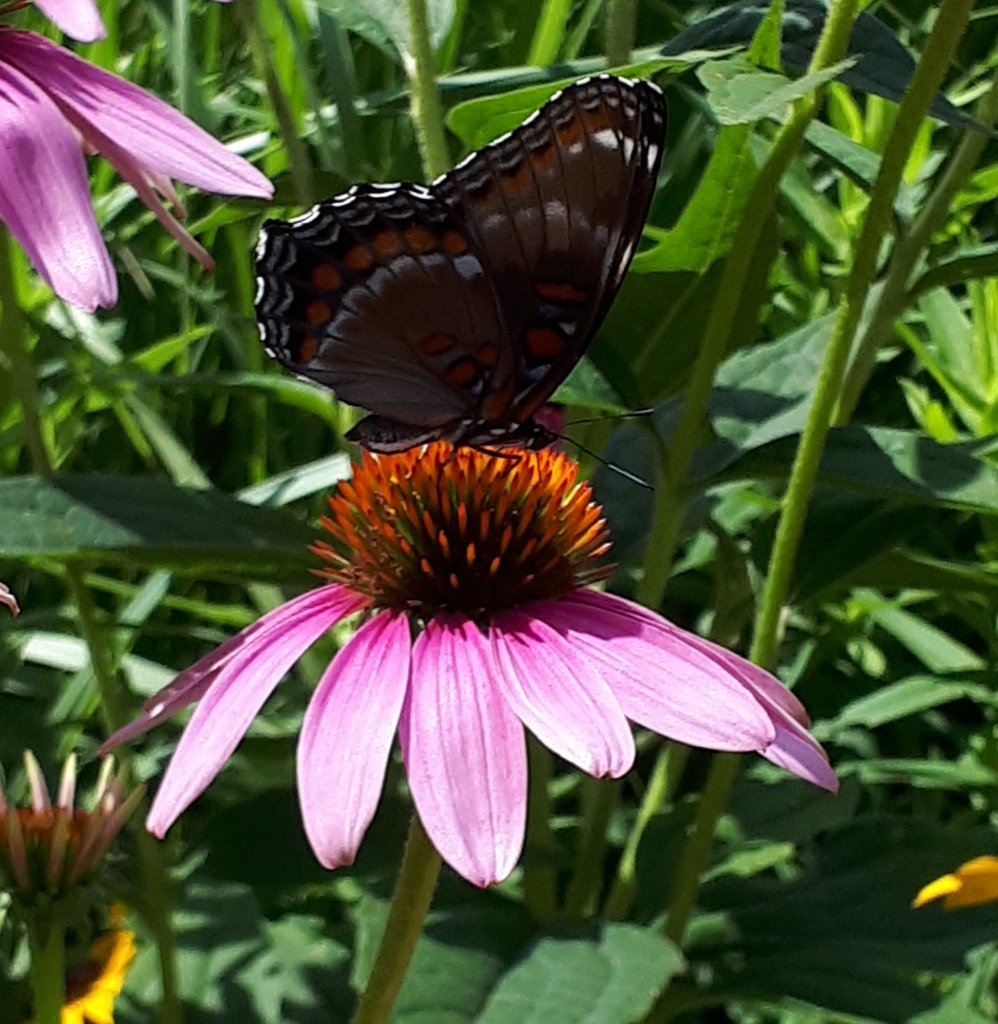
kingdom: Animalia
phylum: Arthropoda
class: Insecta
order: Lepidoptera
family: Nymphalidae
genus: Limenitis
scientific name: Limenitis
